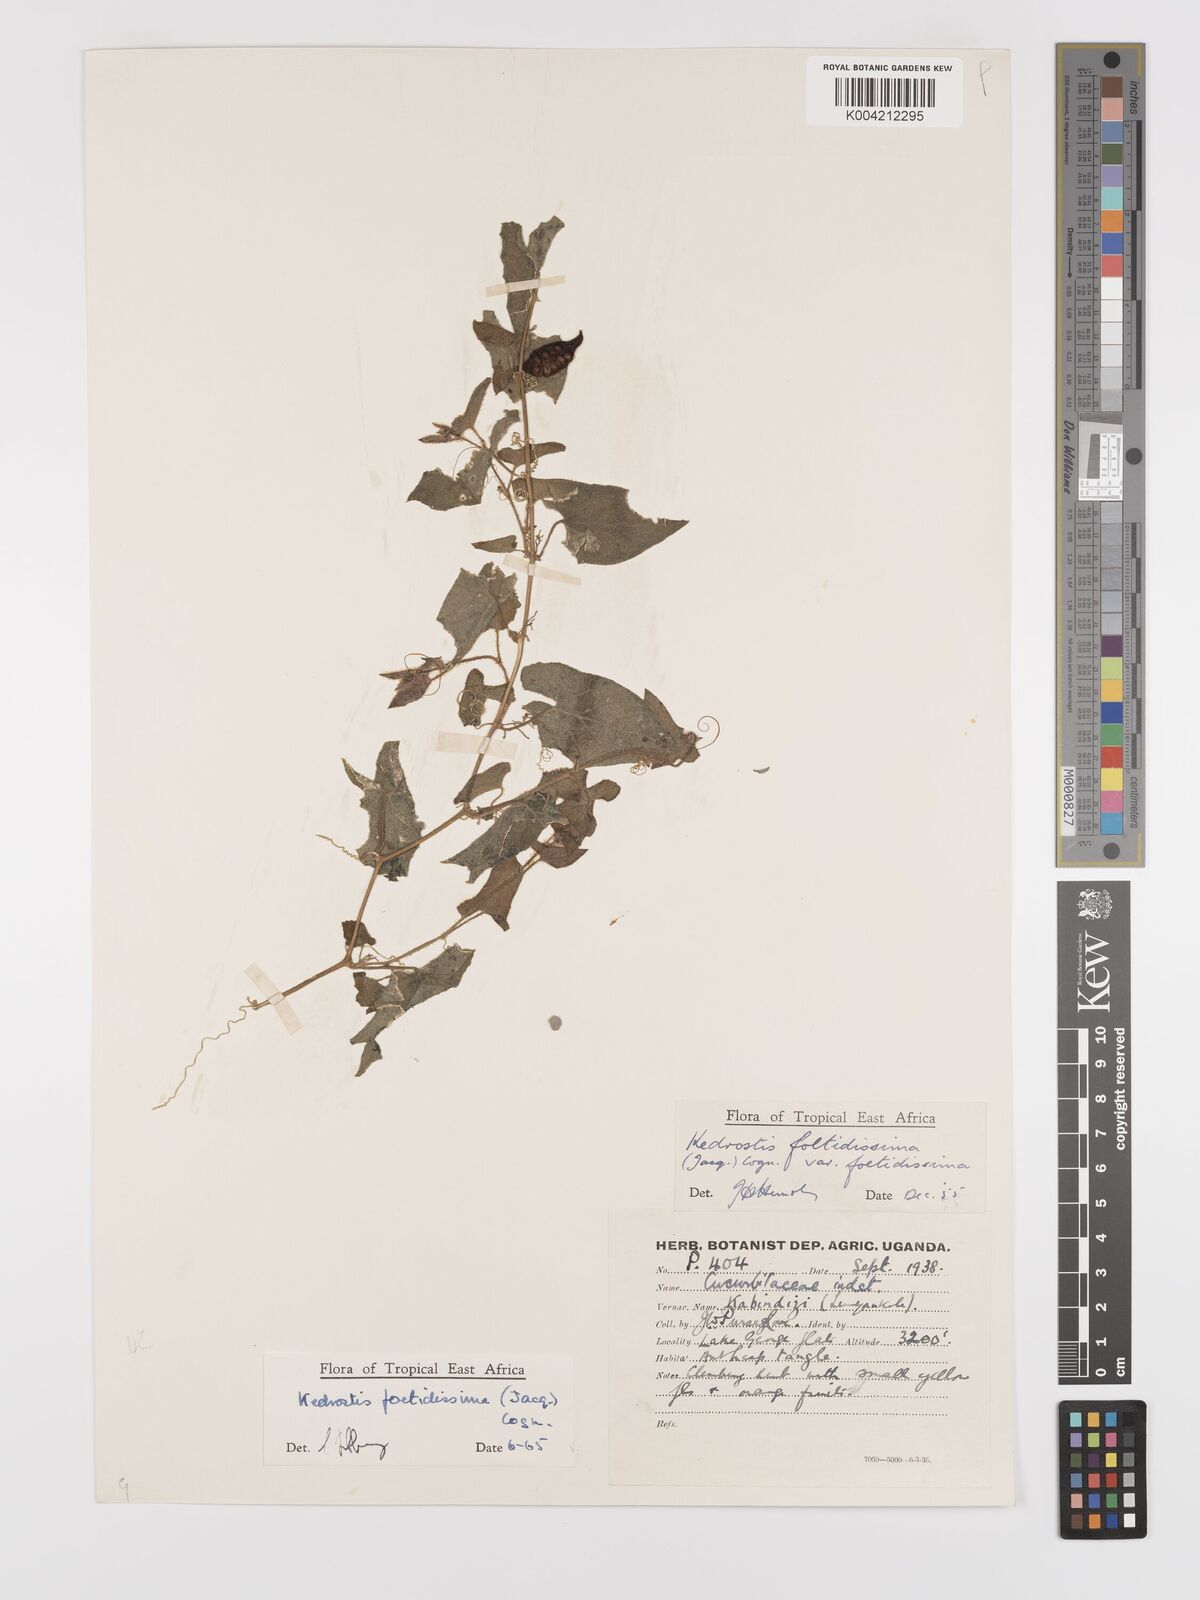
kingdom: Plantae
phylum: Tracheophyta
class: Magnoliopsida
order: Cucurbitales
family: Cucurbitaceae
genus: Kedrostis
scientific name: Kedrostis foetidissima
